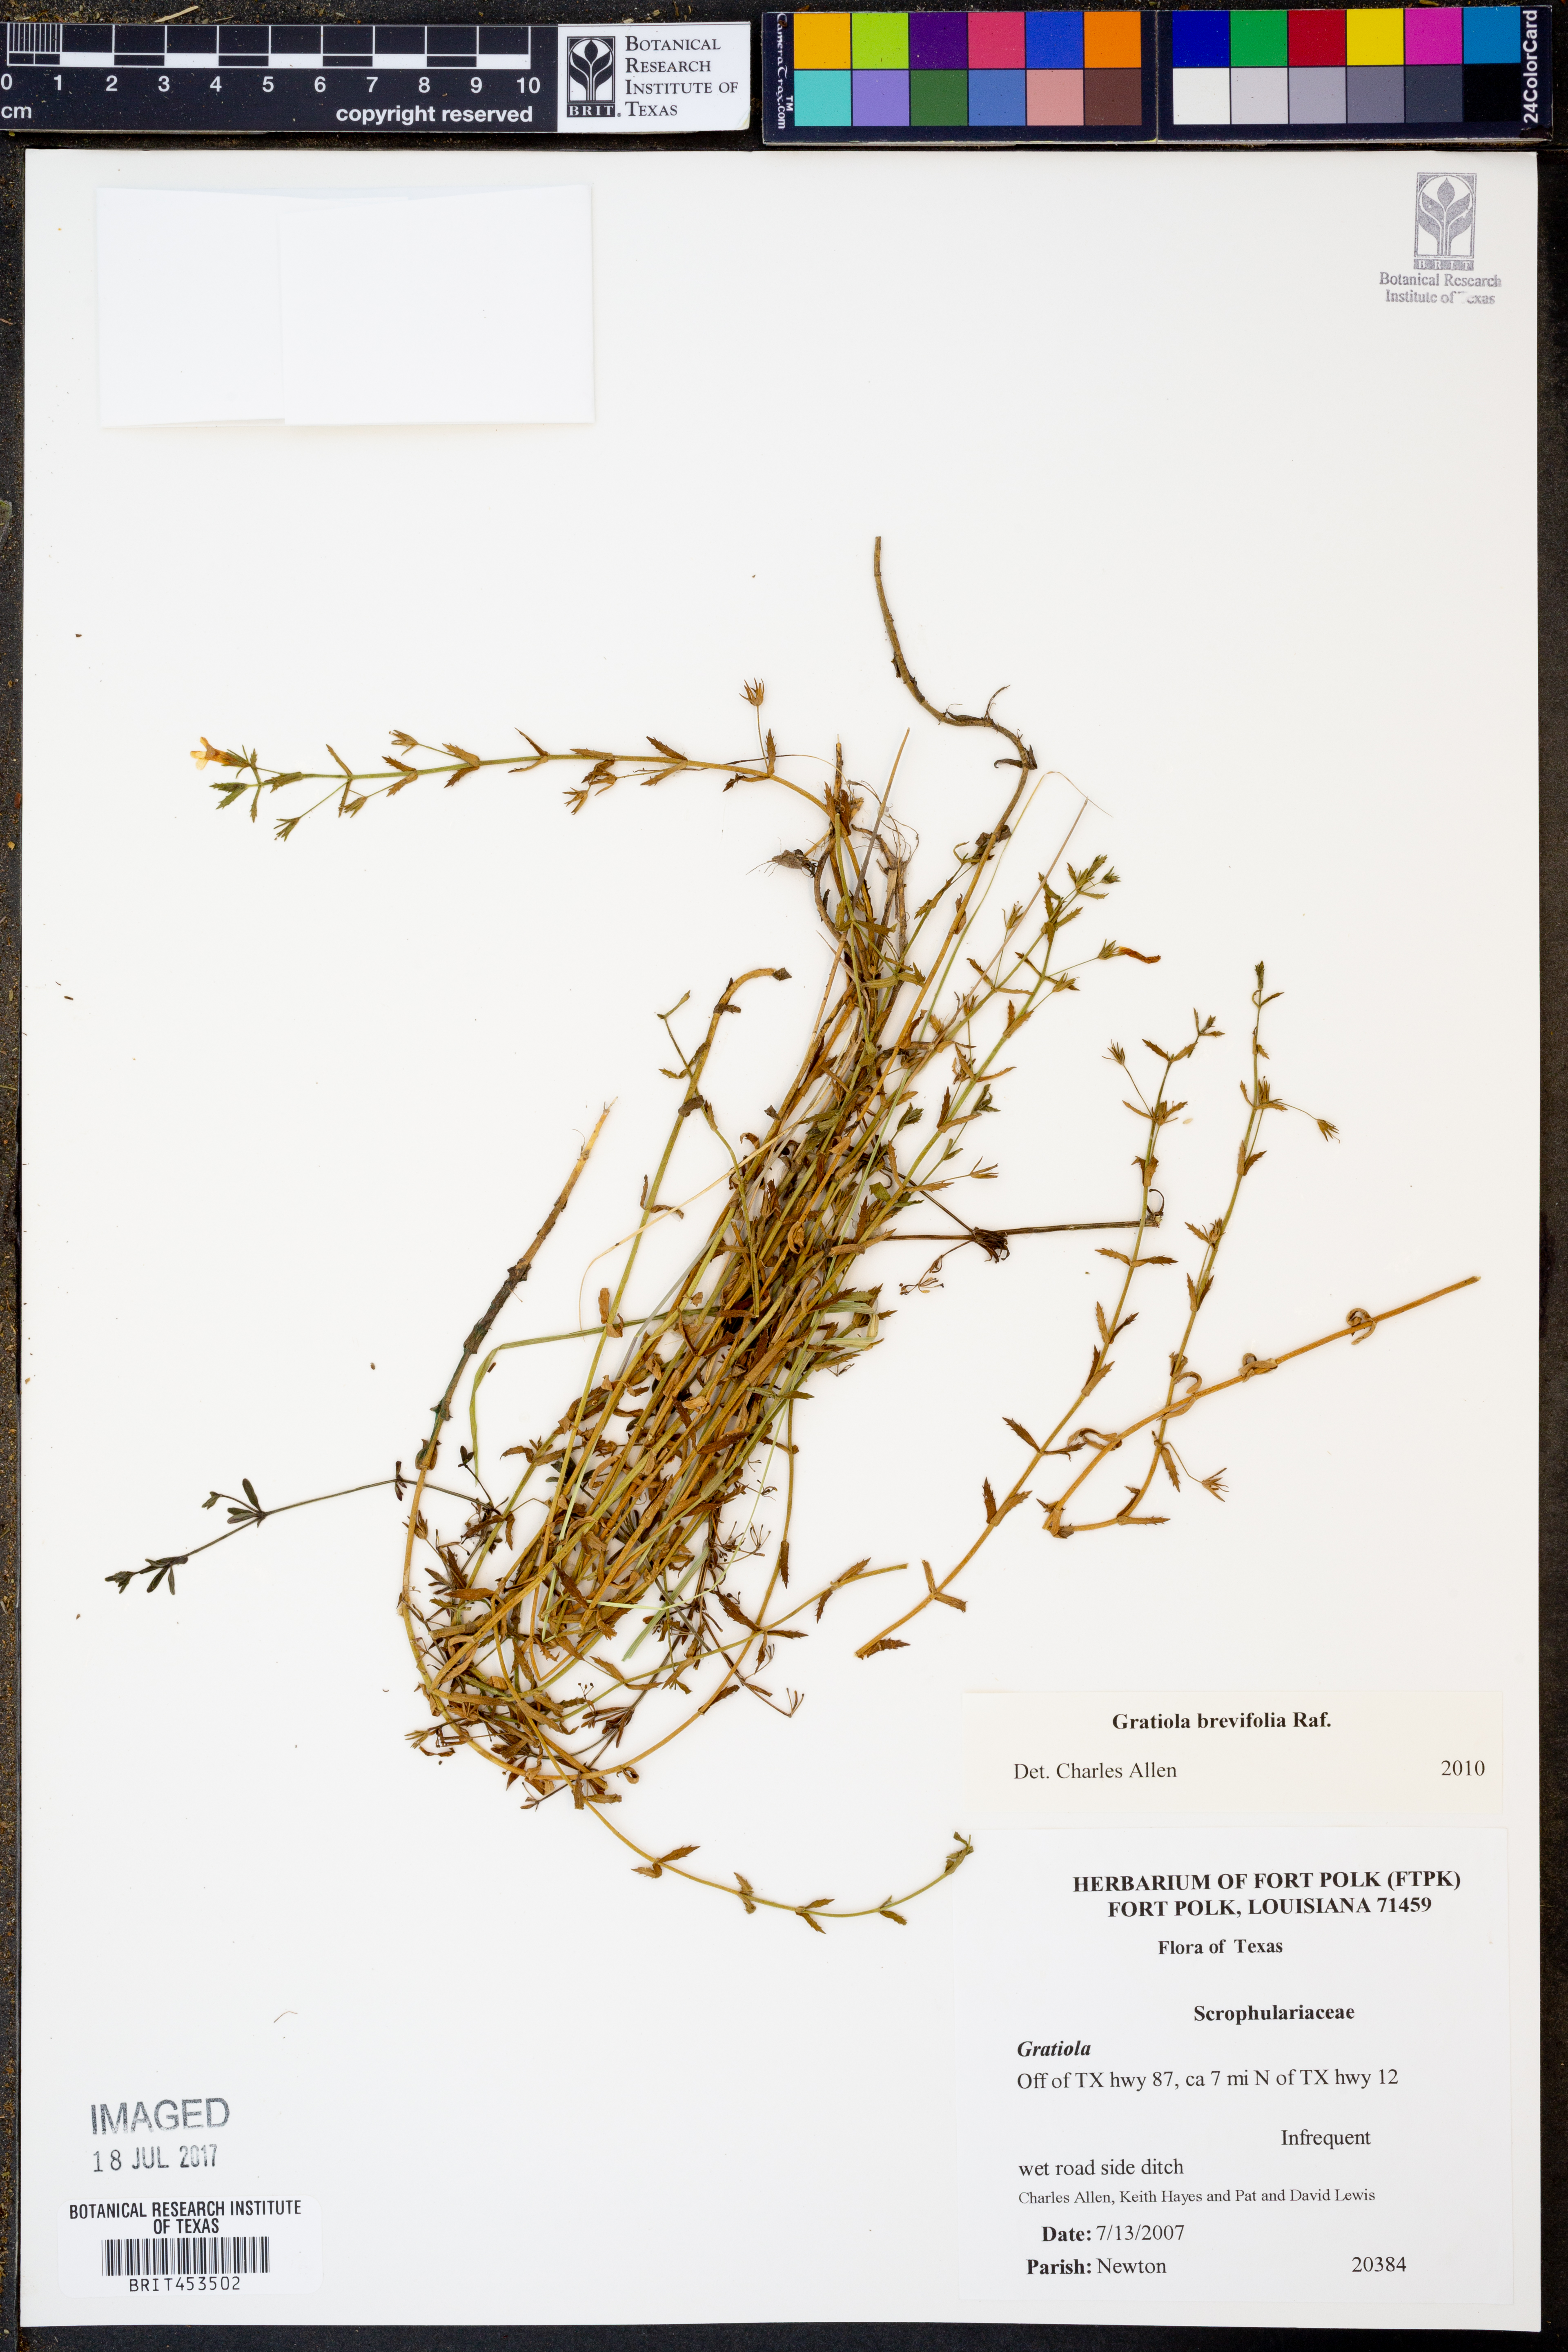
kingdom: Plantae
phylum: Tracheophyta
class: Magnoliopsida
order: Lamiales
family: Plantaginaceae
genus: Gratiola
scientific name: Gratiola brevifolia
